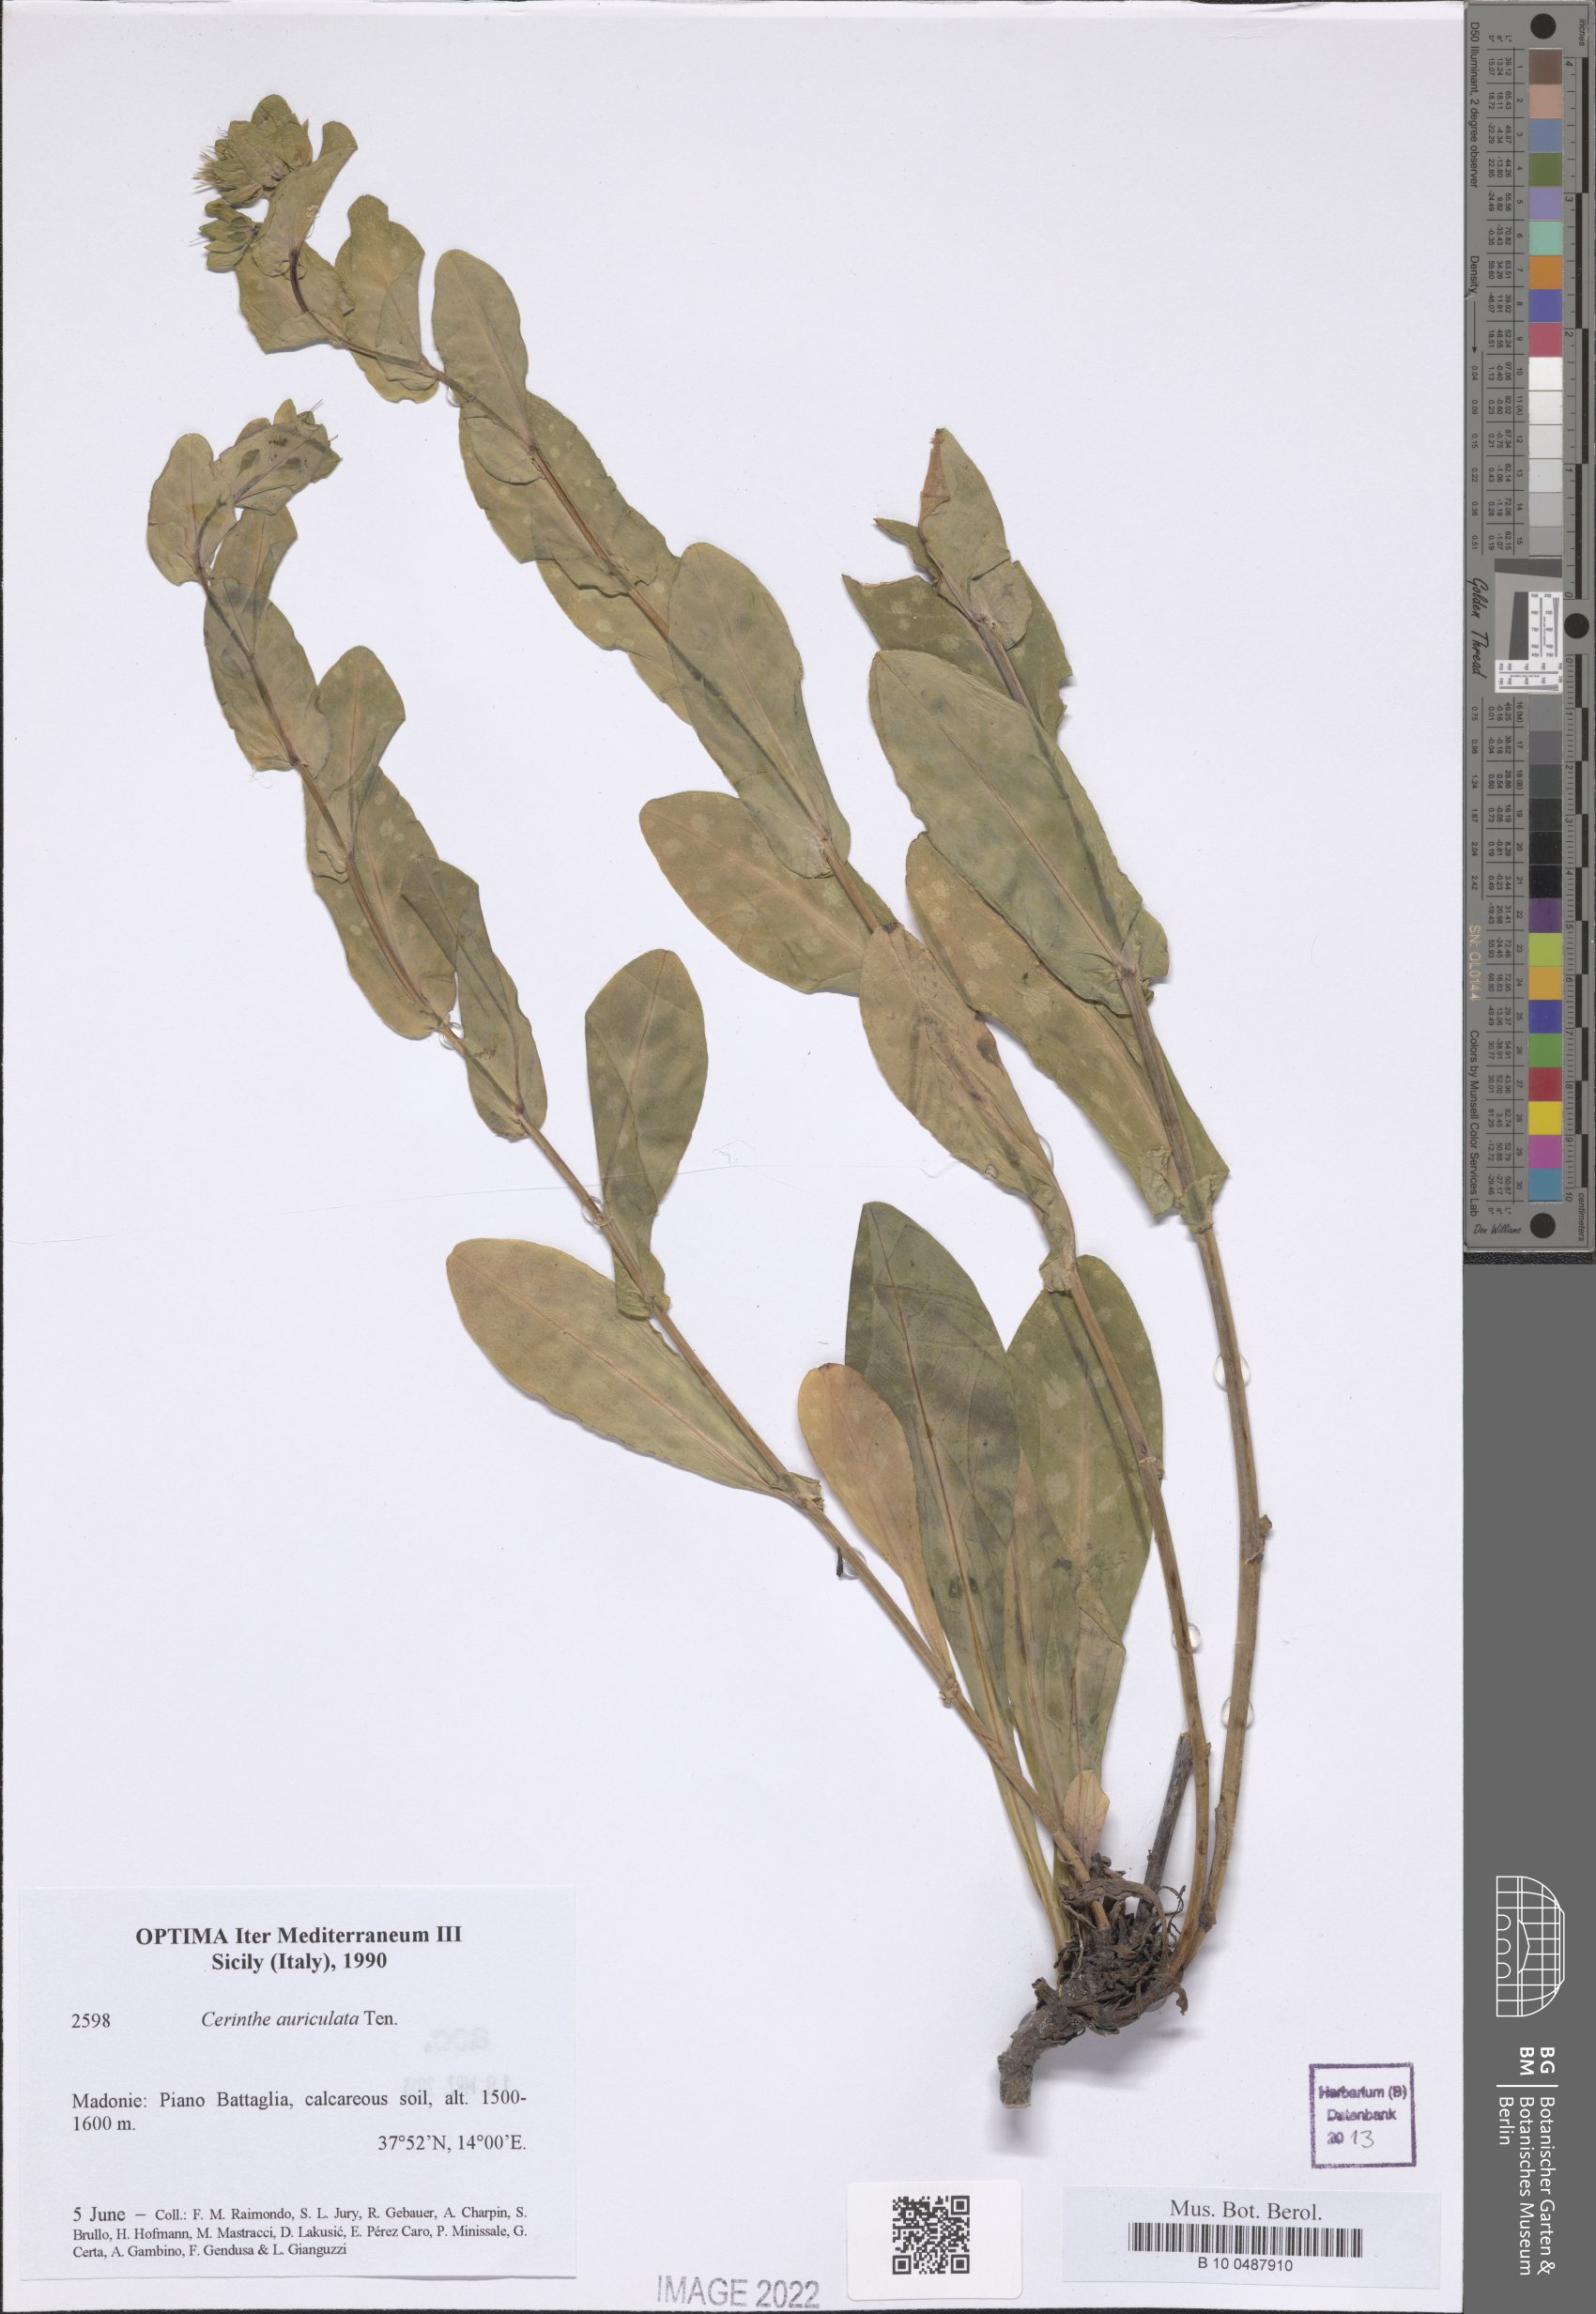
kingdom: Plantae
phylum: Tracheophyta
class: Magnoliopsida
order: Boraginales
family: Boraginaceae
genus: Cerinthe
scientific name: Cerinthe minor
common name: Lesser honeywort
